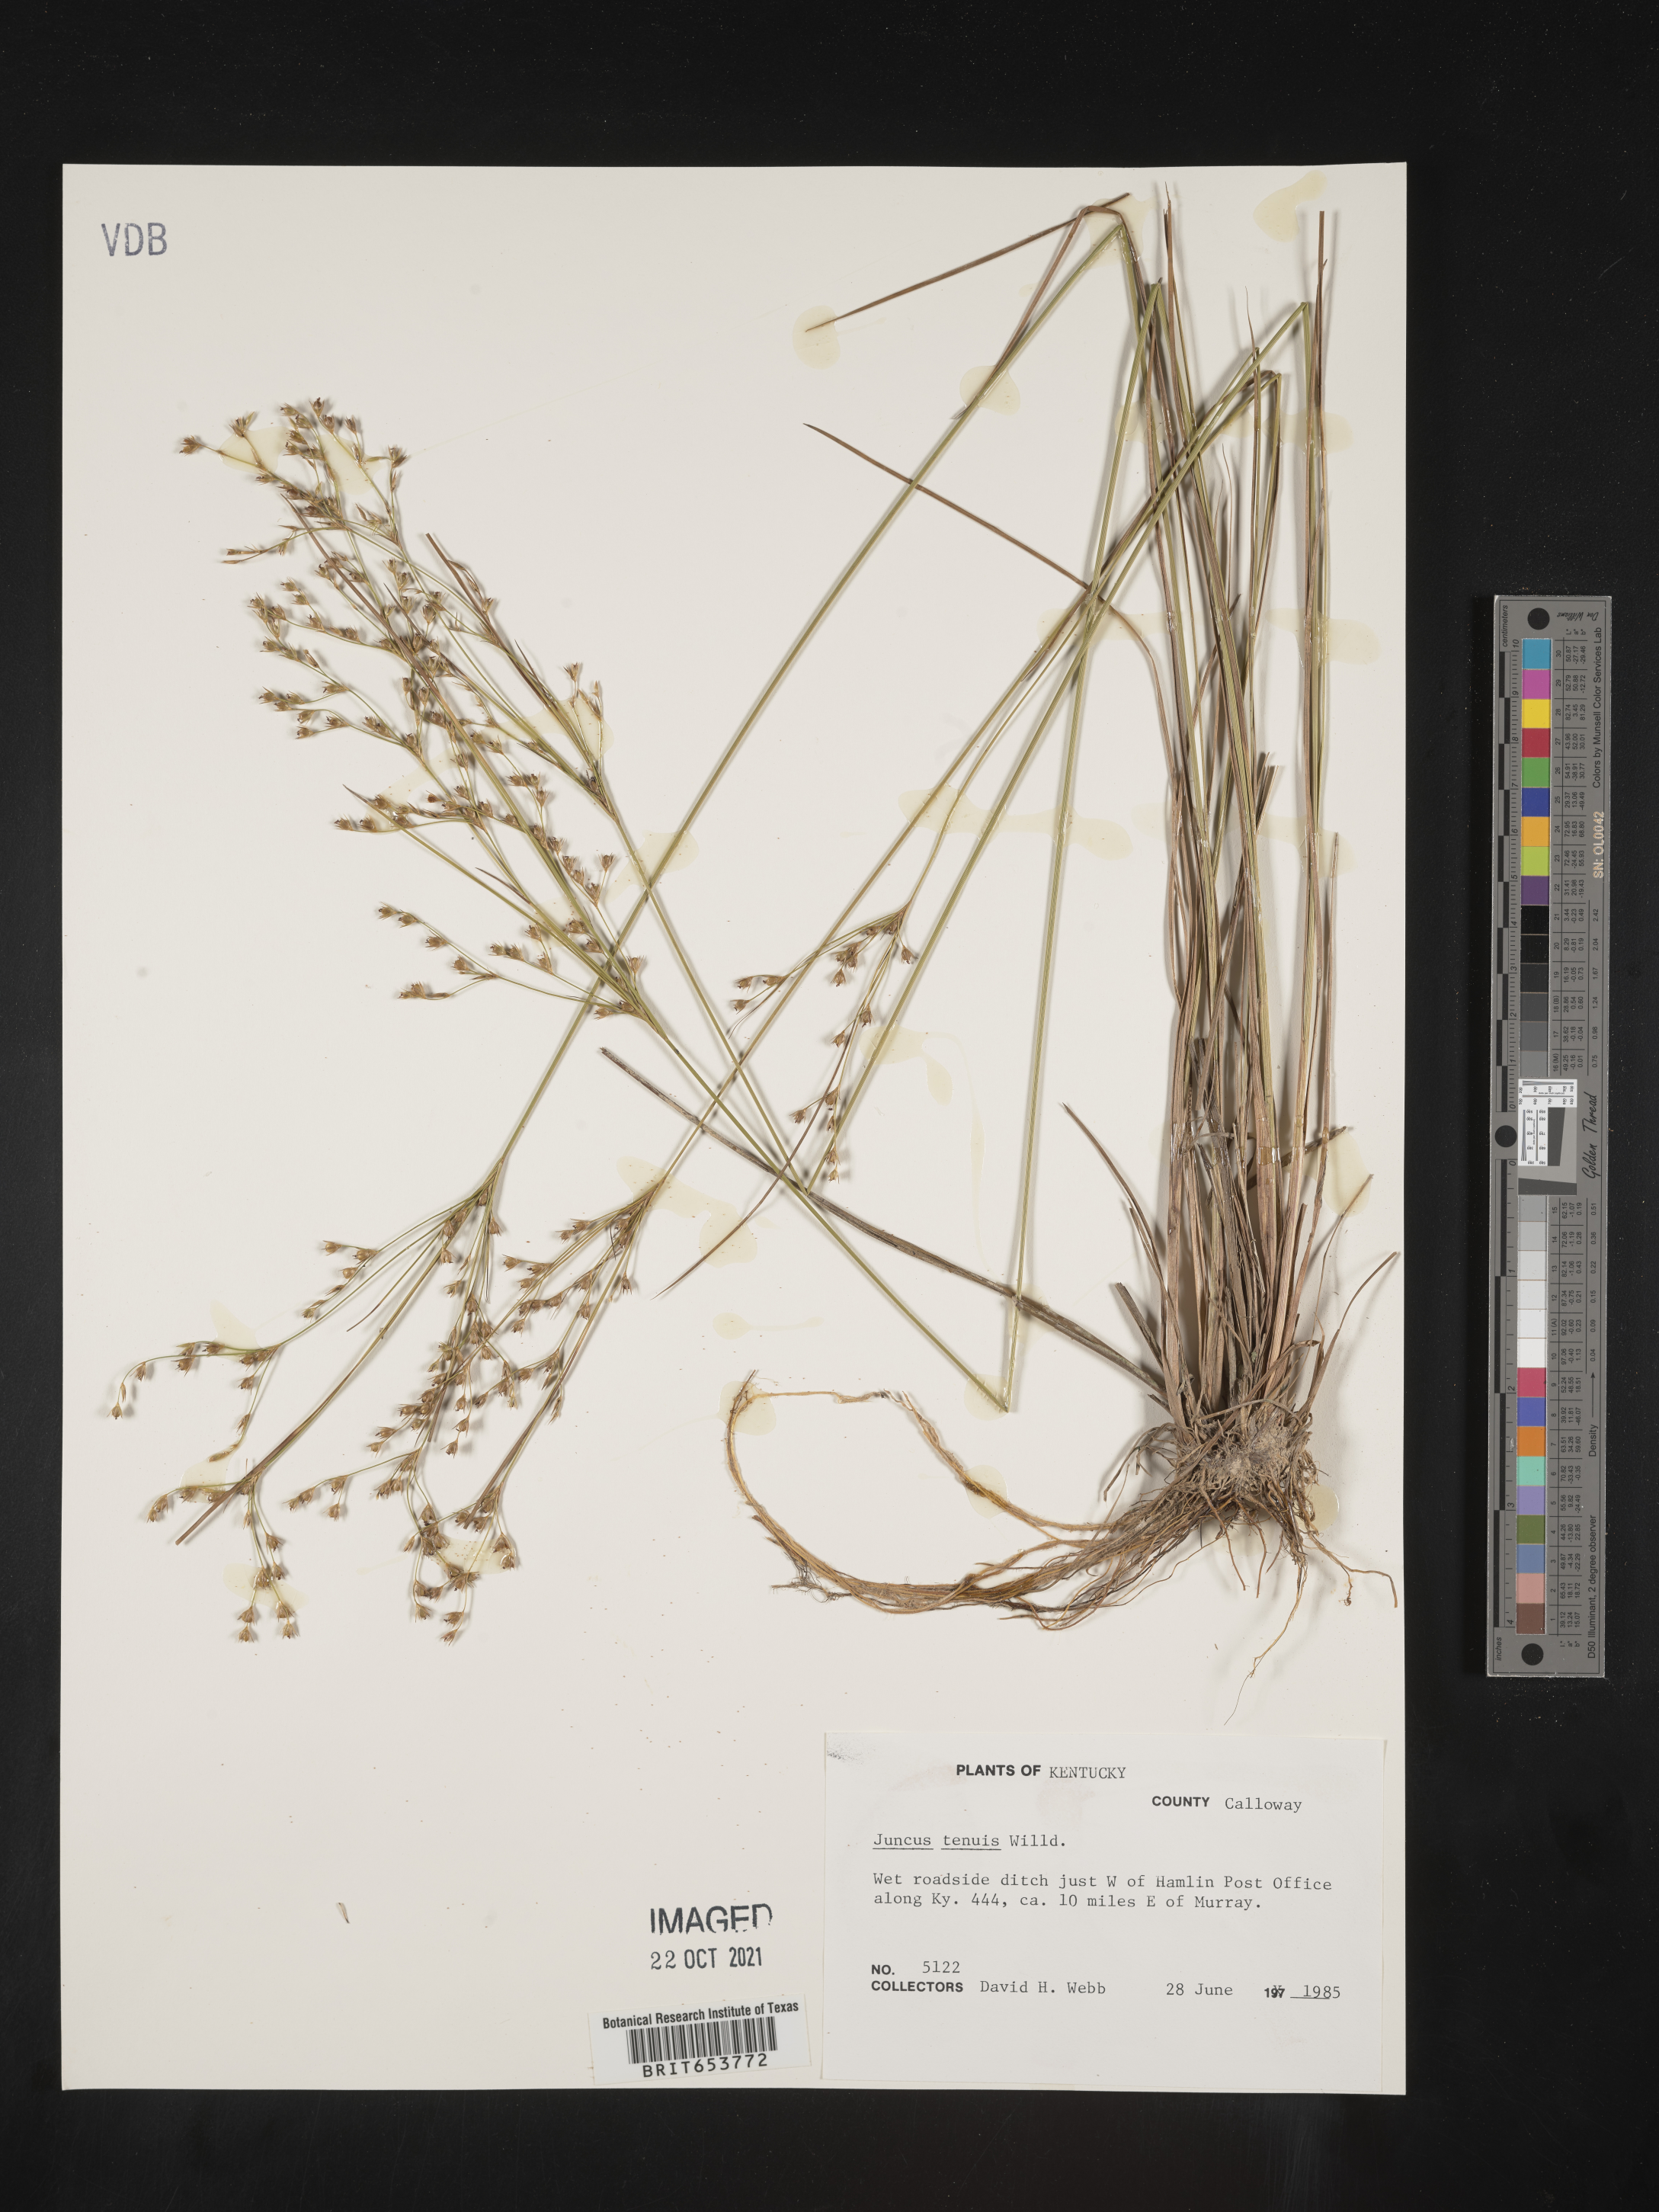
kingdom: Plantae
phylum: Tracheophyta
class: Liliopsida
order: Poales
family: Juncaceae
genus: Juncus
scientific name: Juncus tenuis
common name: Slender rush
